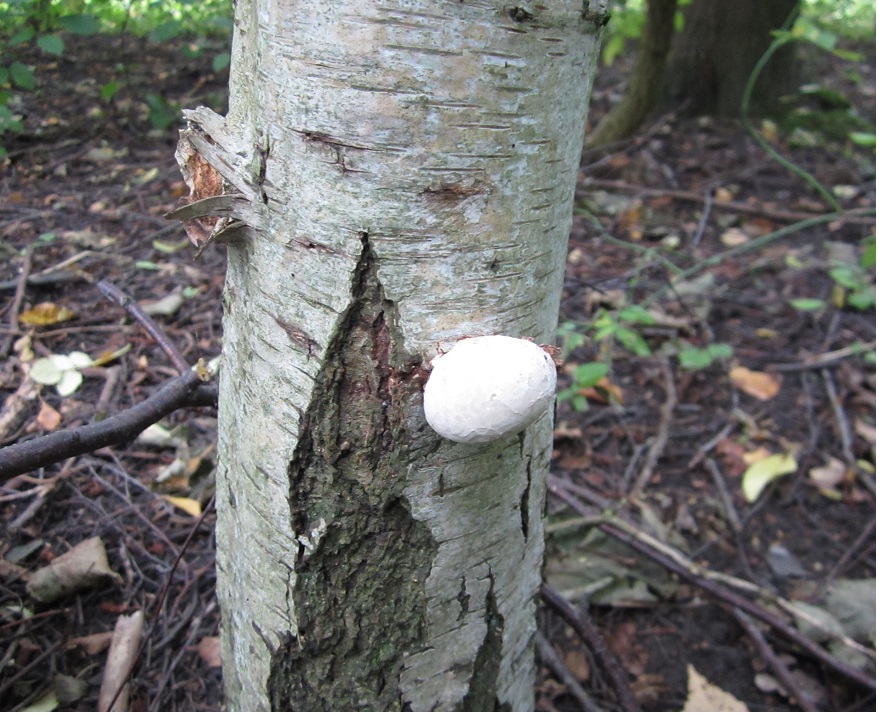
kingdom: Fungi
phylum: Basidiomycota
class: Agaricomycetes
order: Polyporales
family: Fomitopsidaceae
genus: Fomitopsis
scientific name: Fomitopsis betulina
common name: birkeporesvamp
